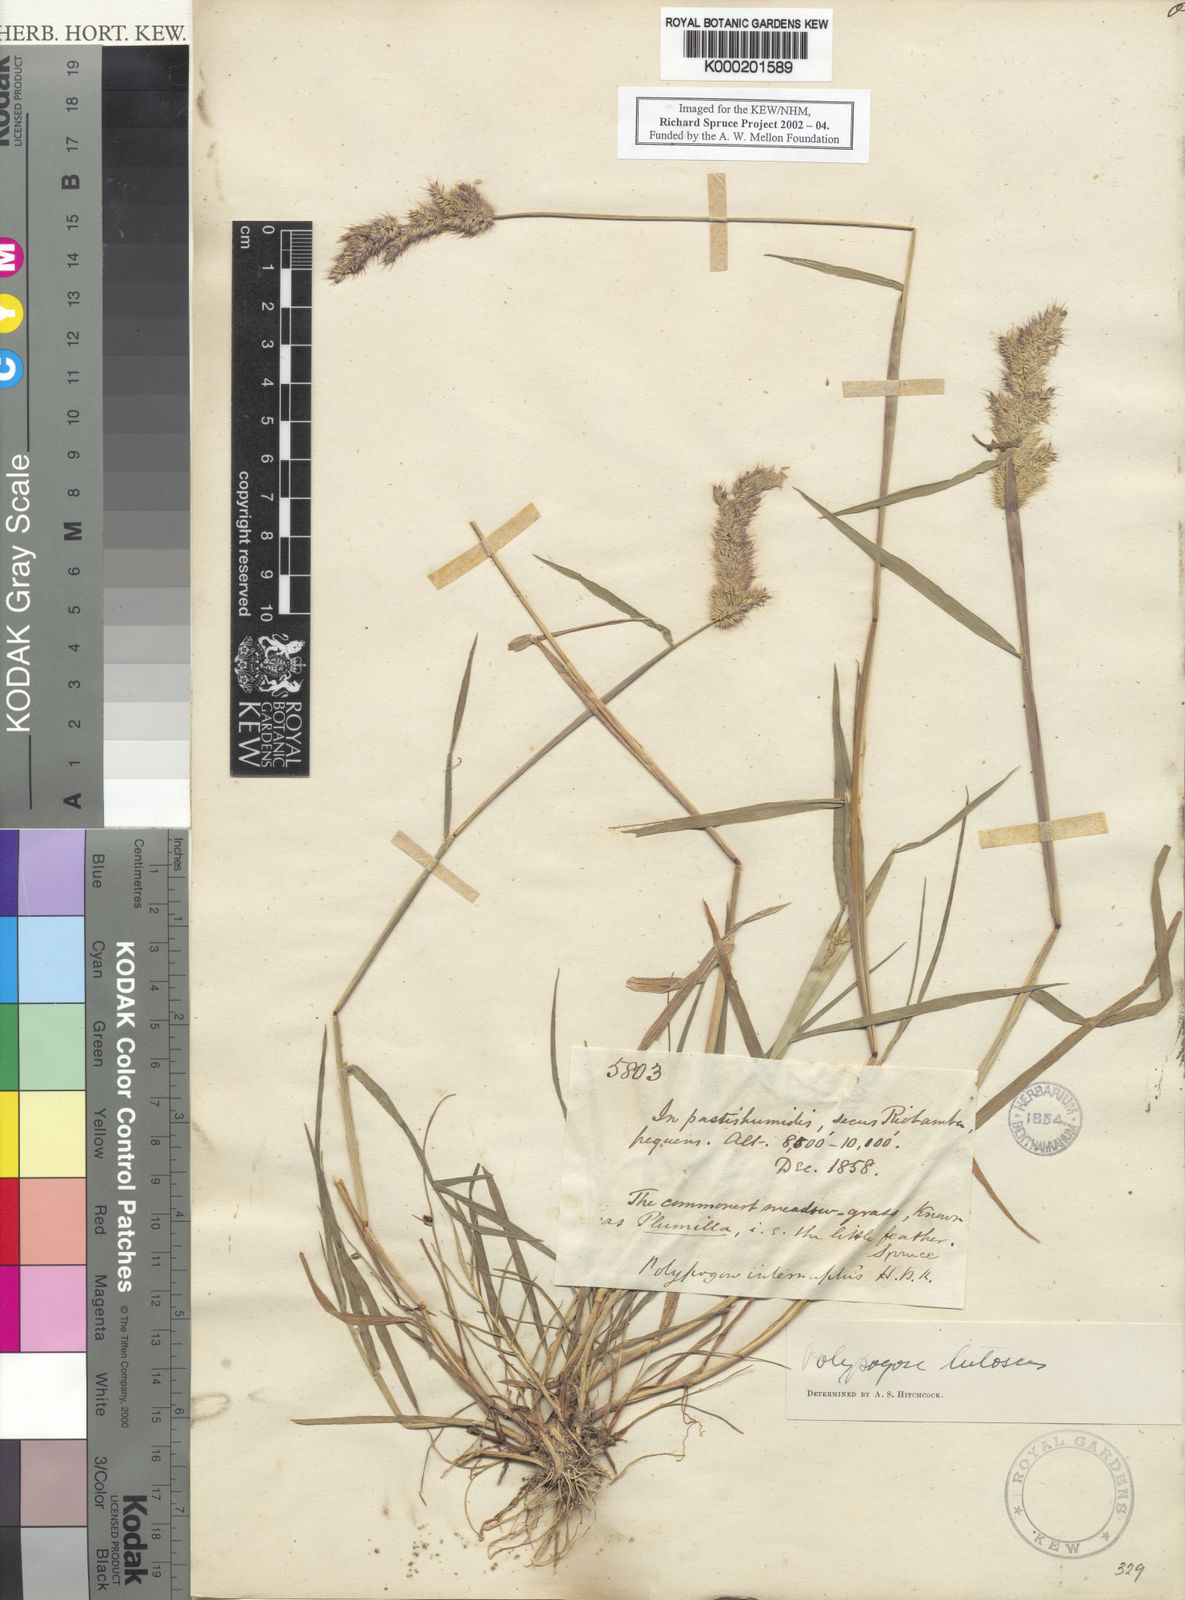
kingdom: Plantae
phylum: Tracheophyta
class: Liliopsida
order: Poales
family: Poaceae
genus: Polypogon
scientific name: Polypogon interruptus
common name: Ditch polypogon
